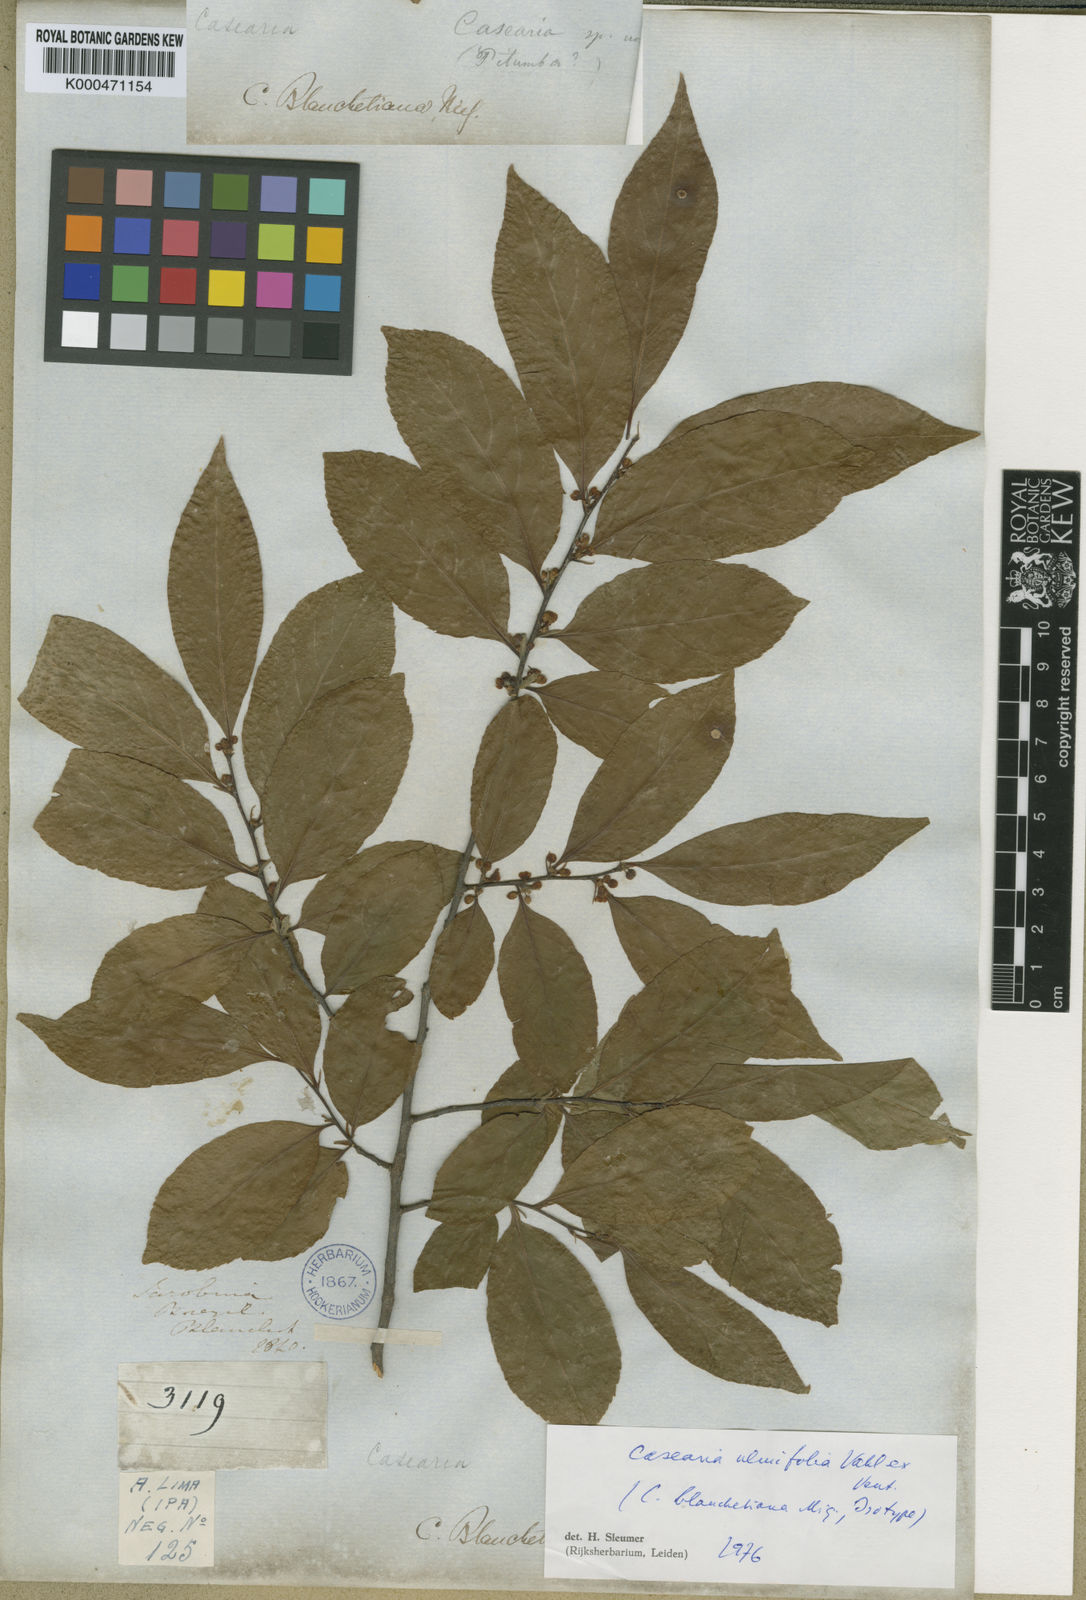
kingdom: Plantae
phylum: Tracheophyta
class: Magnoliopsida
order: Malpighiales
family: Salicaceae
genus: Casearia
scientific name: Casearia ulmifolia
